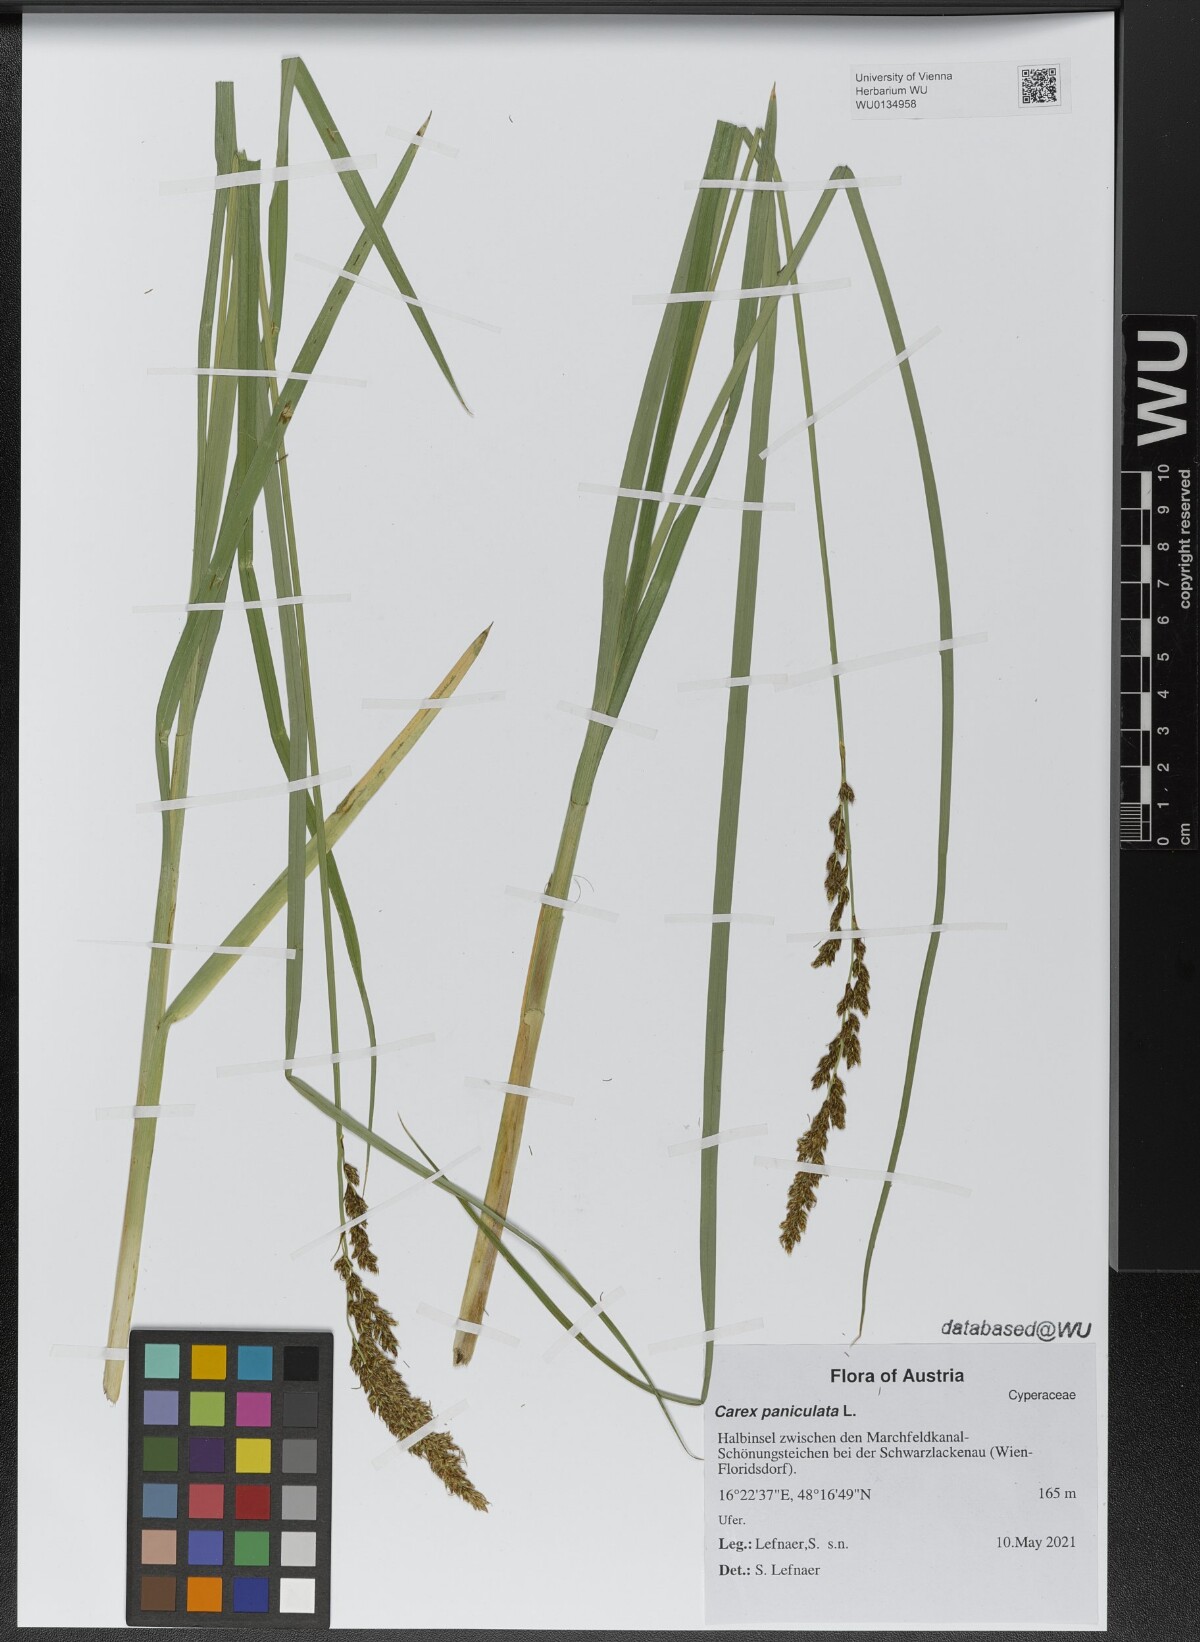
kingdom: Plantae
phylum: Tracheophyta
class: Liliopsida
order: Poales
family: Cyperaceae
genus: Carex
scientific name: Carex paniculata
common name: Greater tussock-sedge
